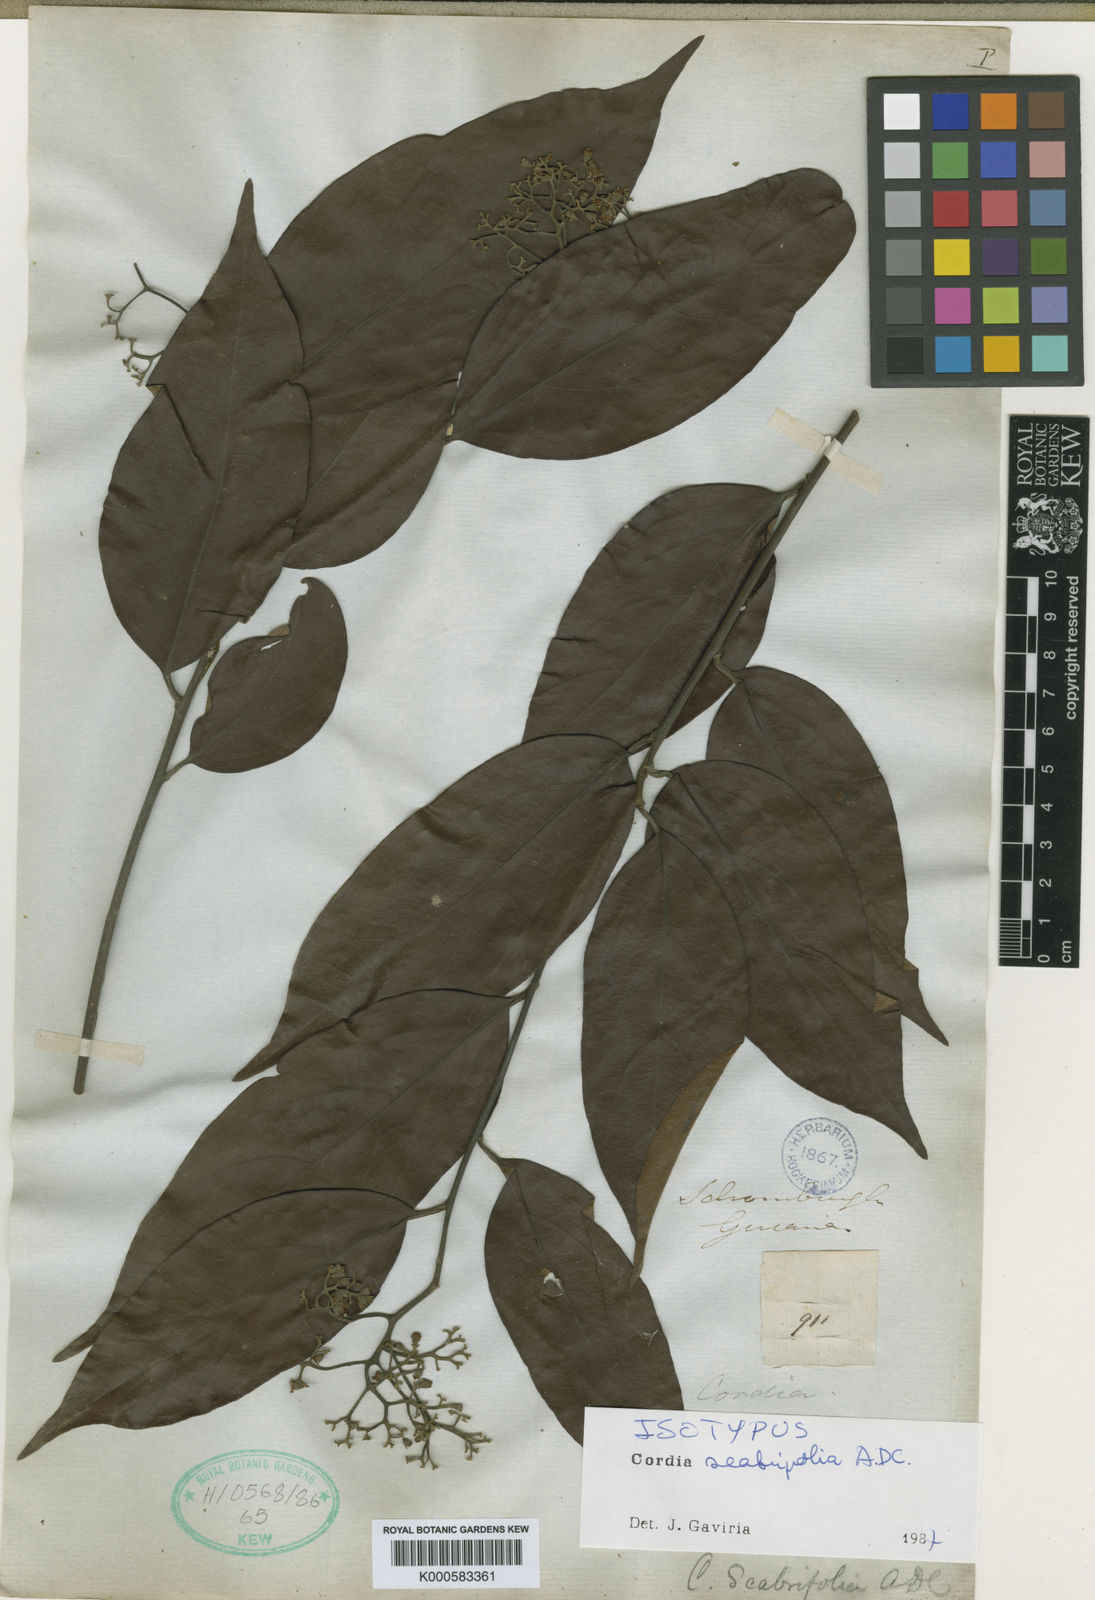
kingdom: Plantae
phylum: Tracheophyta
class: Magnoliopsida
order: Boraginales
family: Cordiaceae
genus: Cordia
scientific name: Cordia scabrifolia
